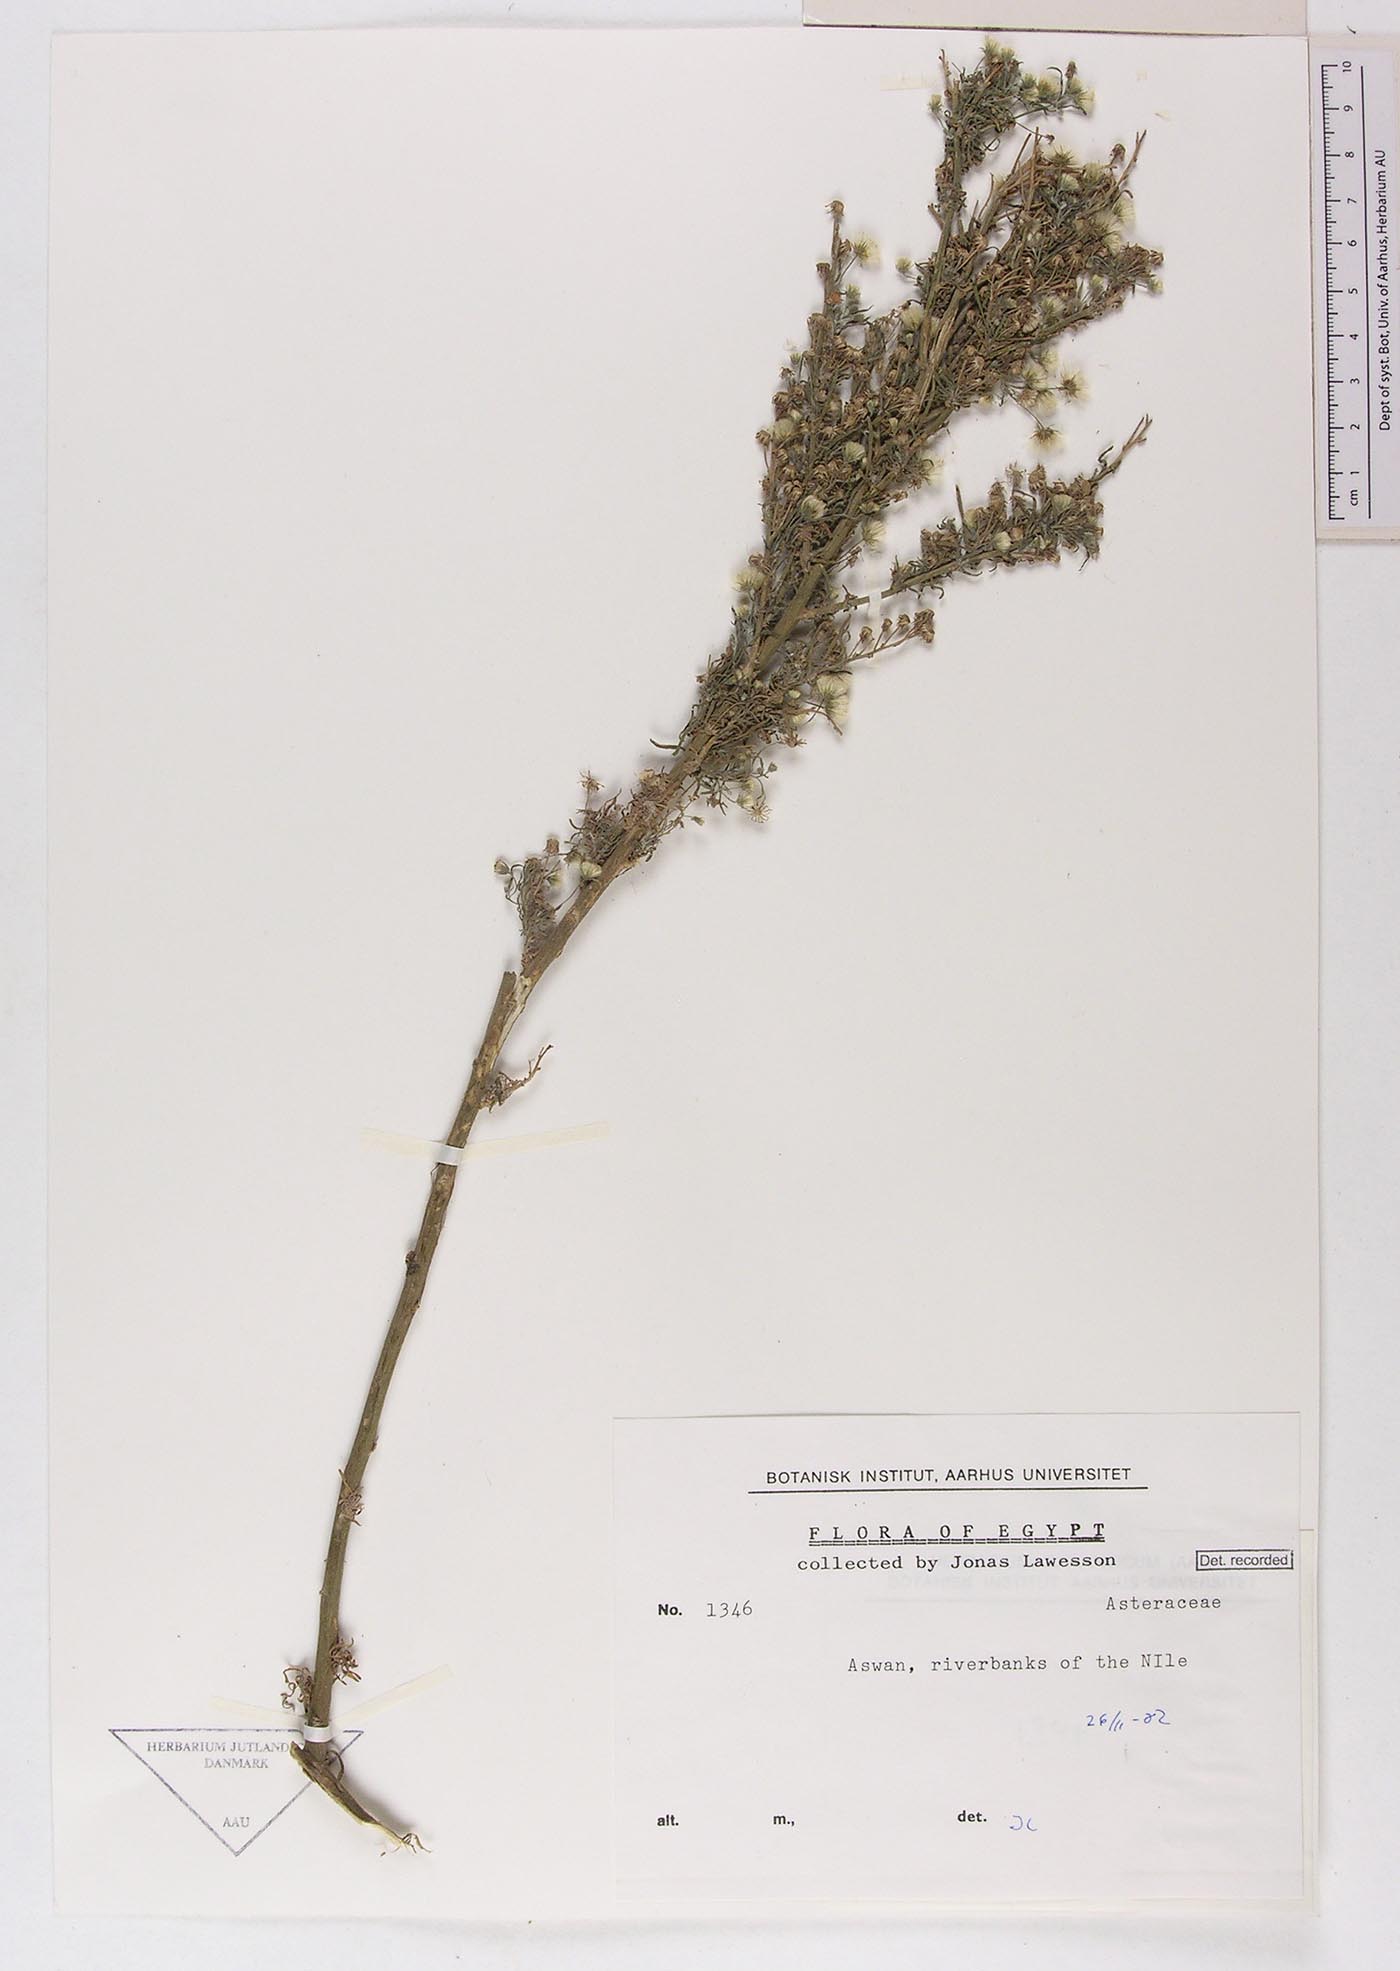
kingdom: Plantae
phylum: Tracheophyta
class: Magnoliopsida
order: Asterales
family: Asteraceae
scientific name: Asteraceae
